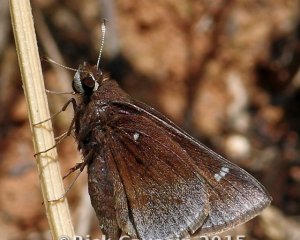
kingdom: Animalia
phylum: Arthropoda
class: Insecta
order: Lepidoptera
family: Hesperiidae
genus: Atrytonopsis
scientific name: Atrytonopsis hianna
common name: Dusted Skipper
